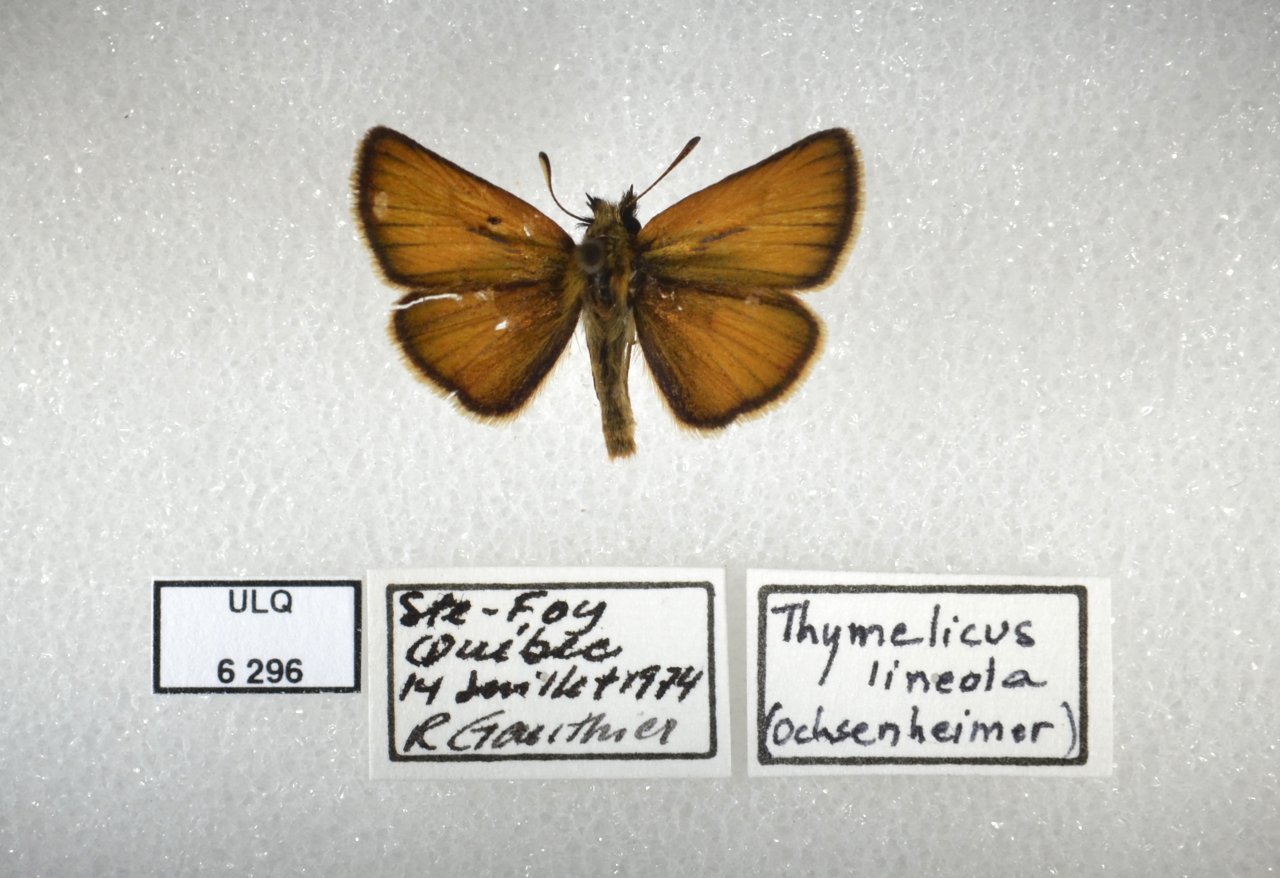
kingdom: Animalia
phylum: Arthropoda
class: Insecta
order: Lepidoptera
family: Hesperiidae
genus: Thymelicus
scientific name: Thymelicus lineola
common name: European Skipper
